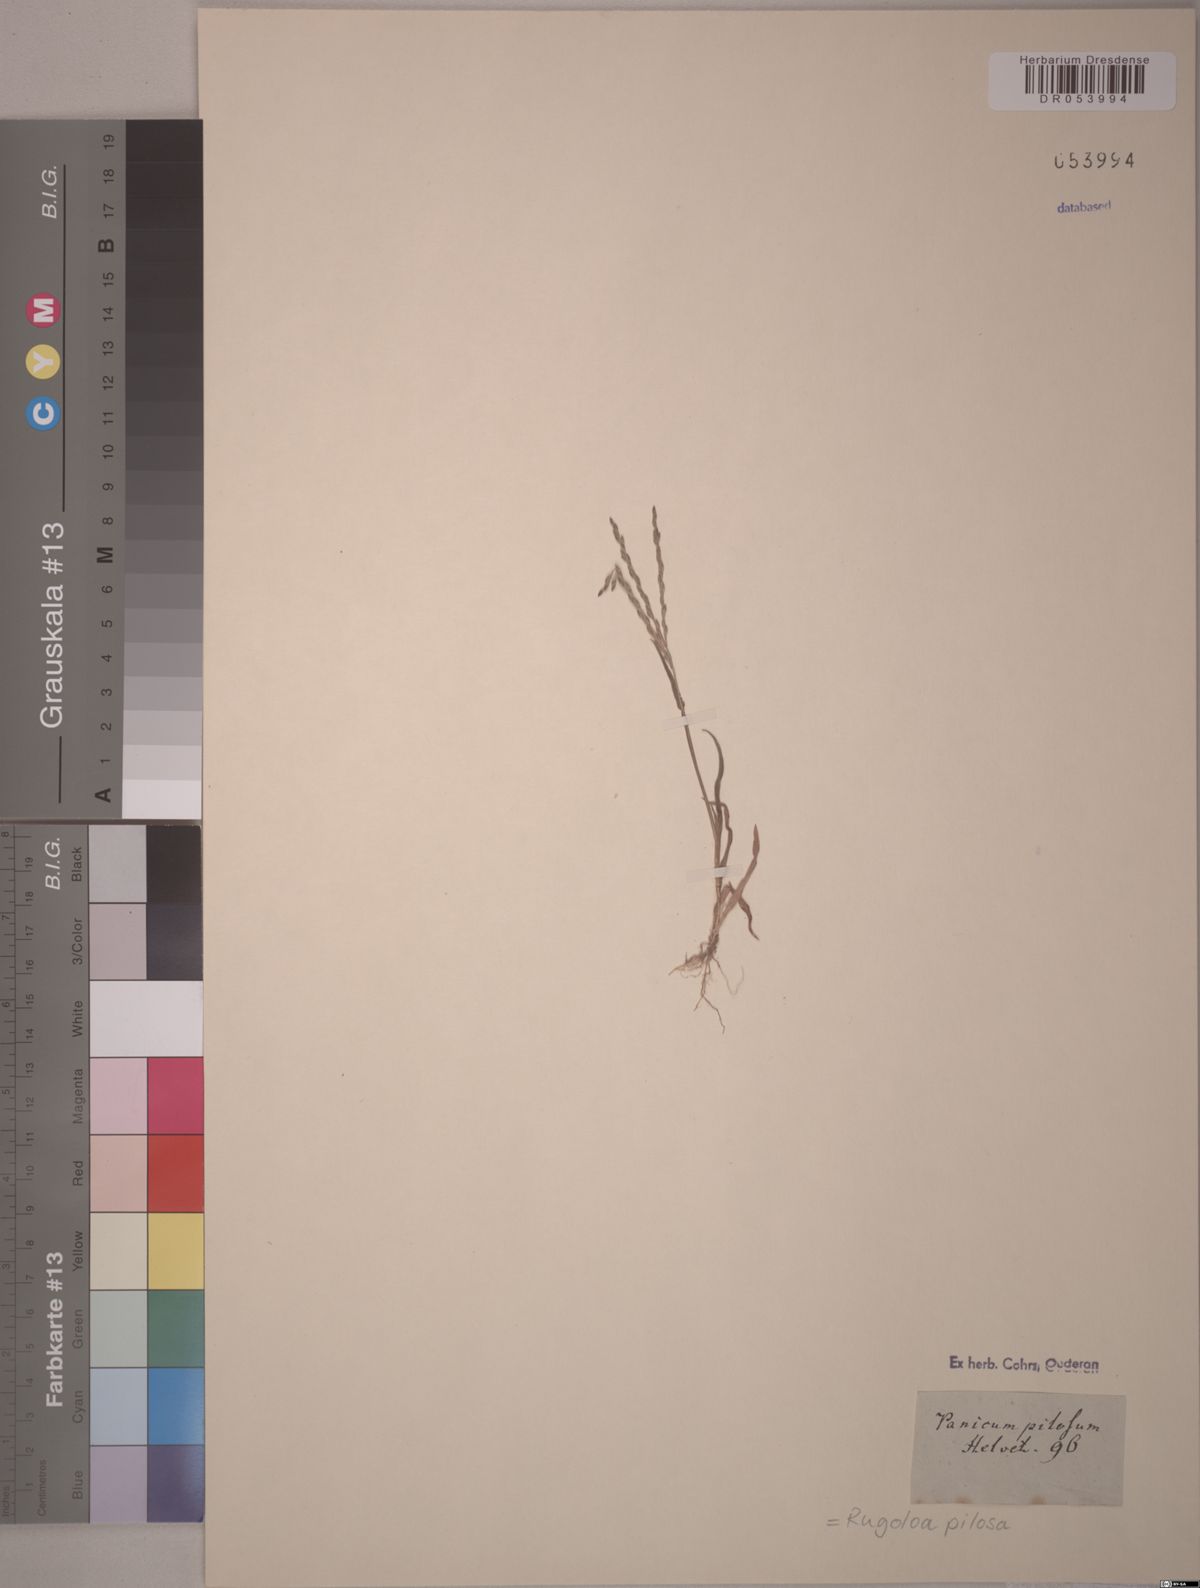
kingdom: Plantae
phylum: Tracheophyta
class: Liliopsida
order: Poales
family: Poaceae
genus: Rugoloa
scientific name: Rugoloa pilosa
